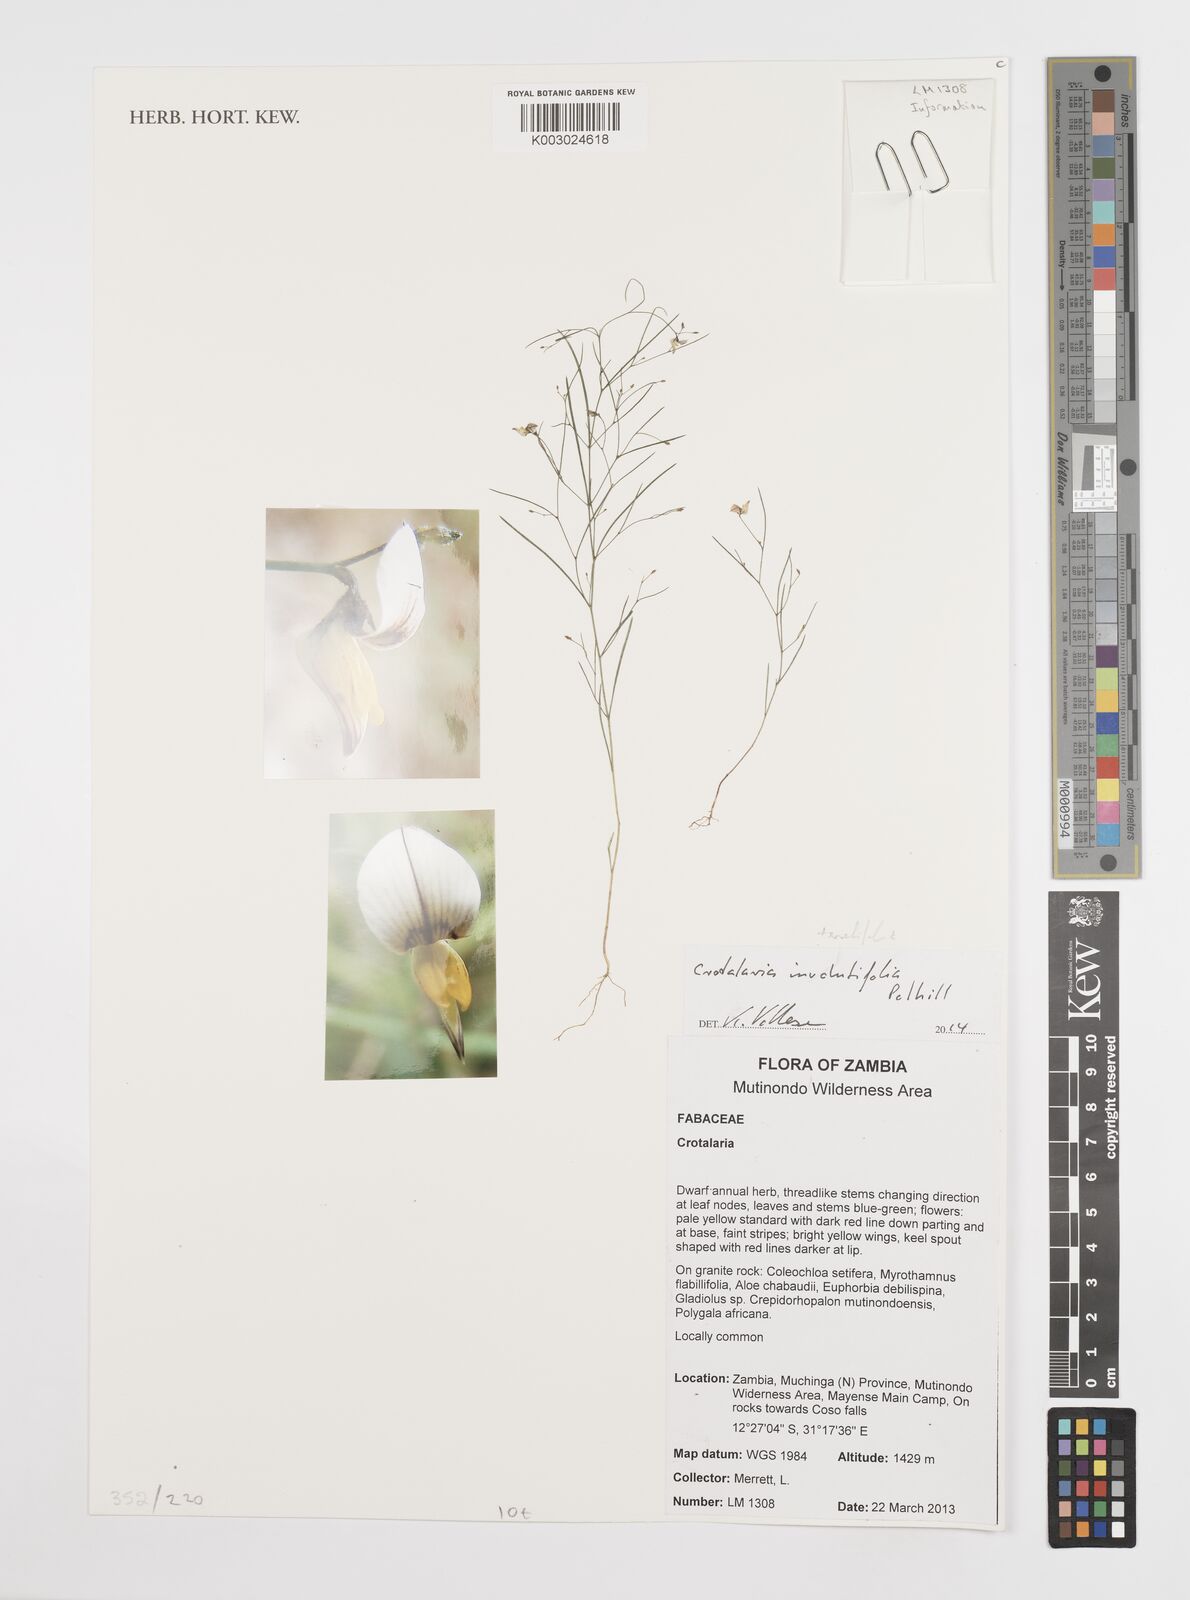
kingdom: Plantae
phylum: Tracheophyta
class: Magnoliopsida
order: Fabales
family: Fabaceae
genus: Crotalaria
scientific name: Crotalaria teretifolia
